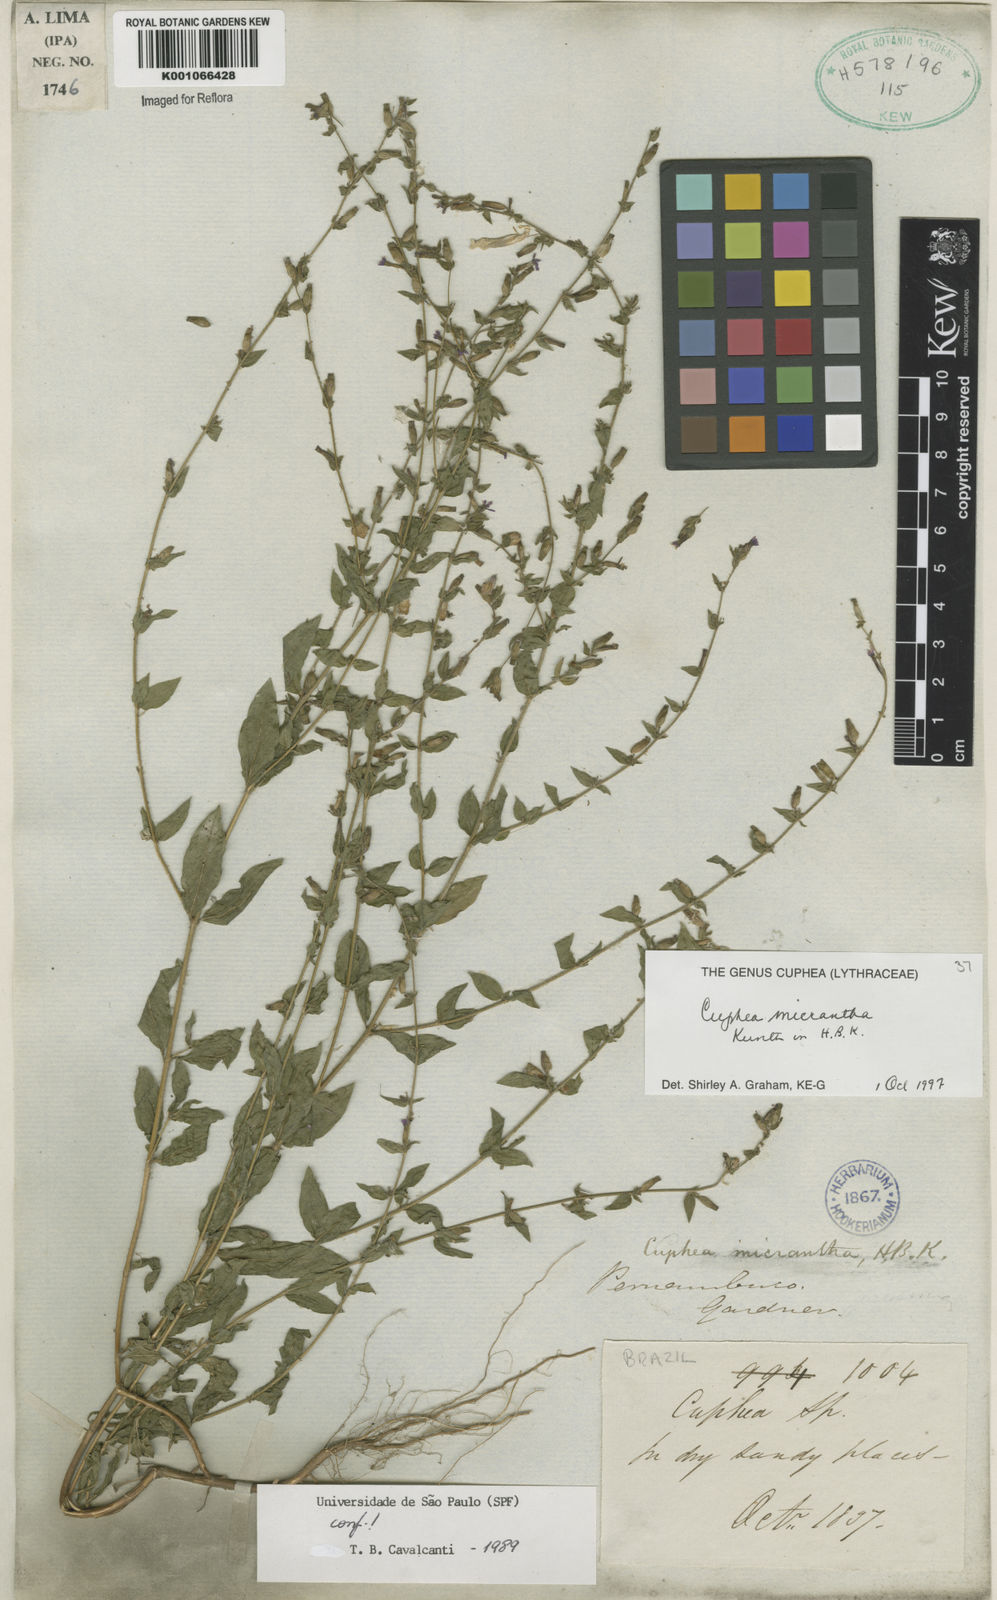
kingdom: Plantae
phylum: Tracheophyta
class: Magnoliopsida
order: Myrtales
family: Lythraceae
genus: Cuphea
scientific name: Cuphea micrantha
